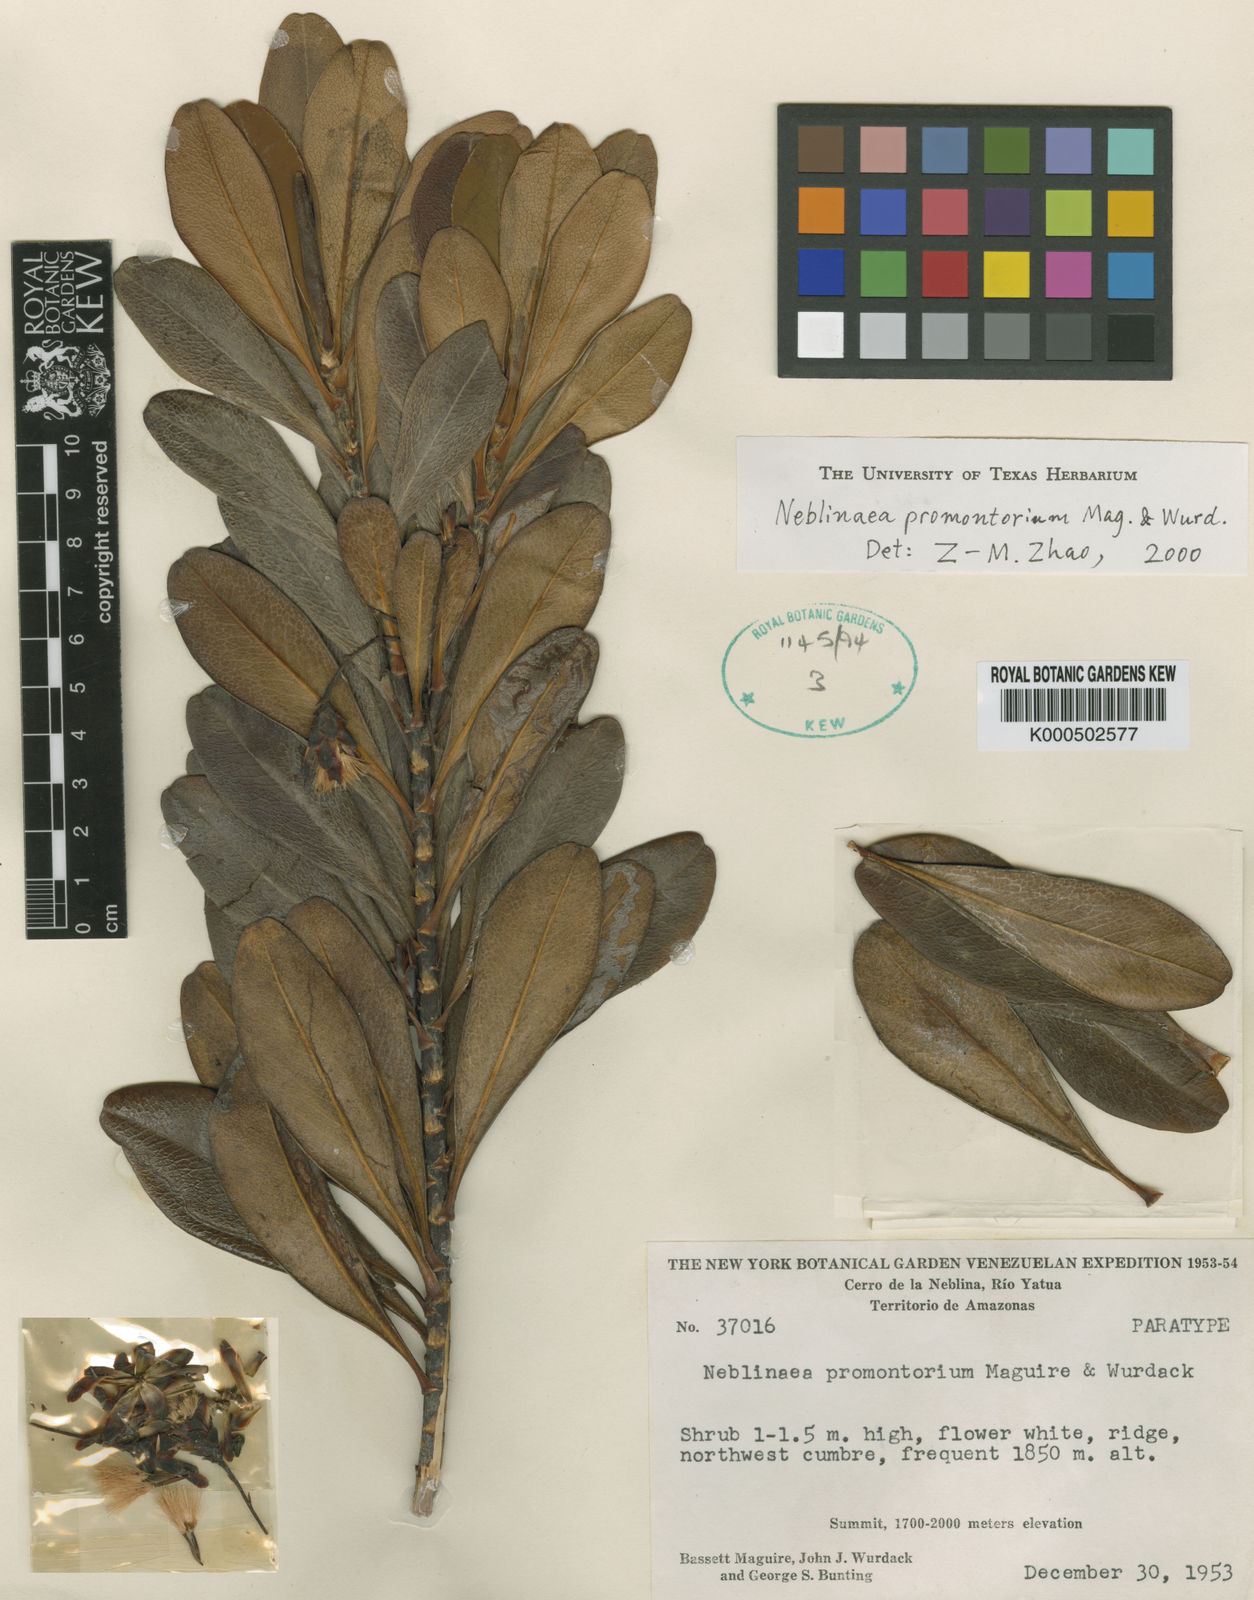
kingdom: Plantae
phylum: Tracheophyta
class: Magnoliopsida
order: Asterales
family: Asteraceae
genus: Neblinaea
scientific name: Neblinaea promontoriorum
